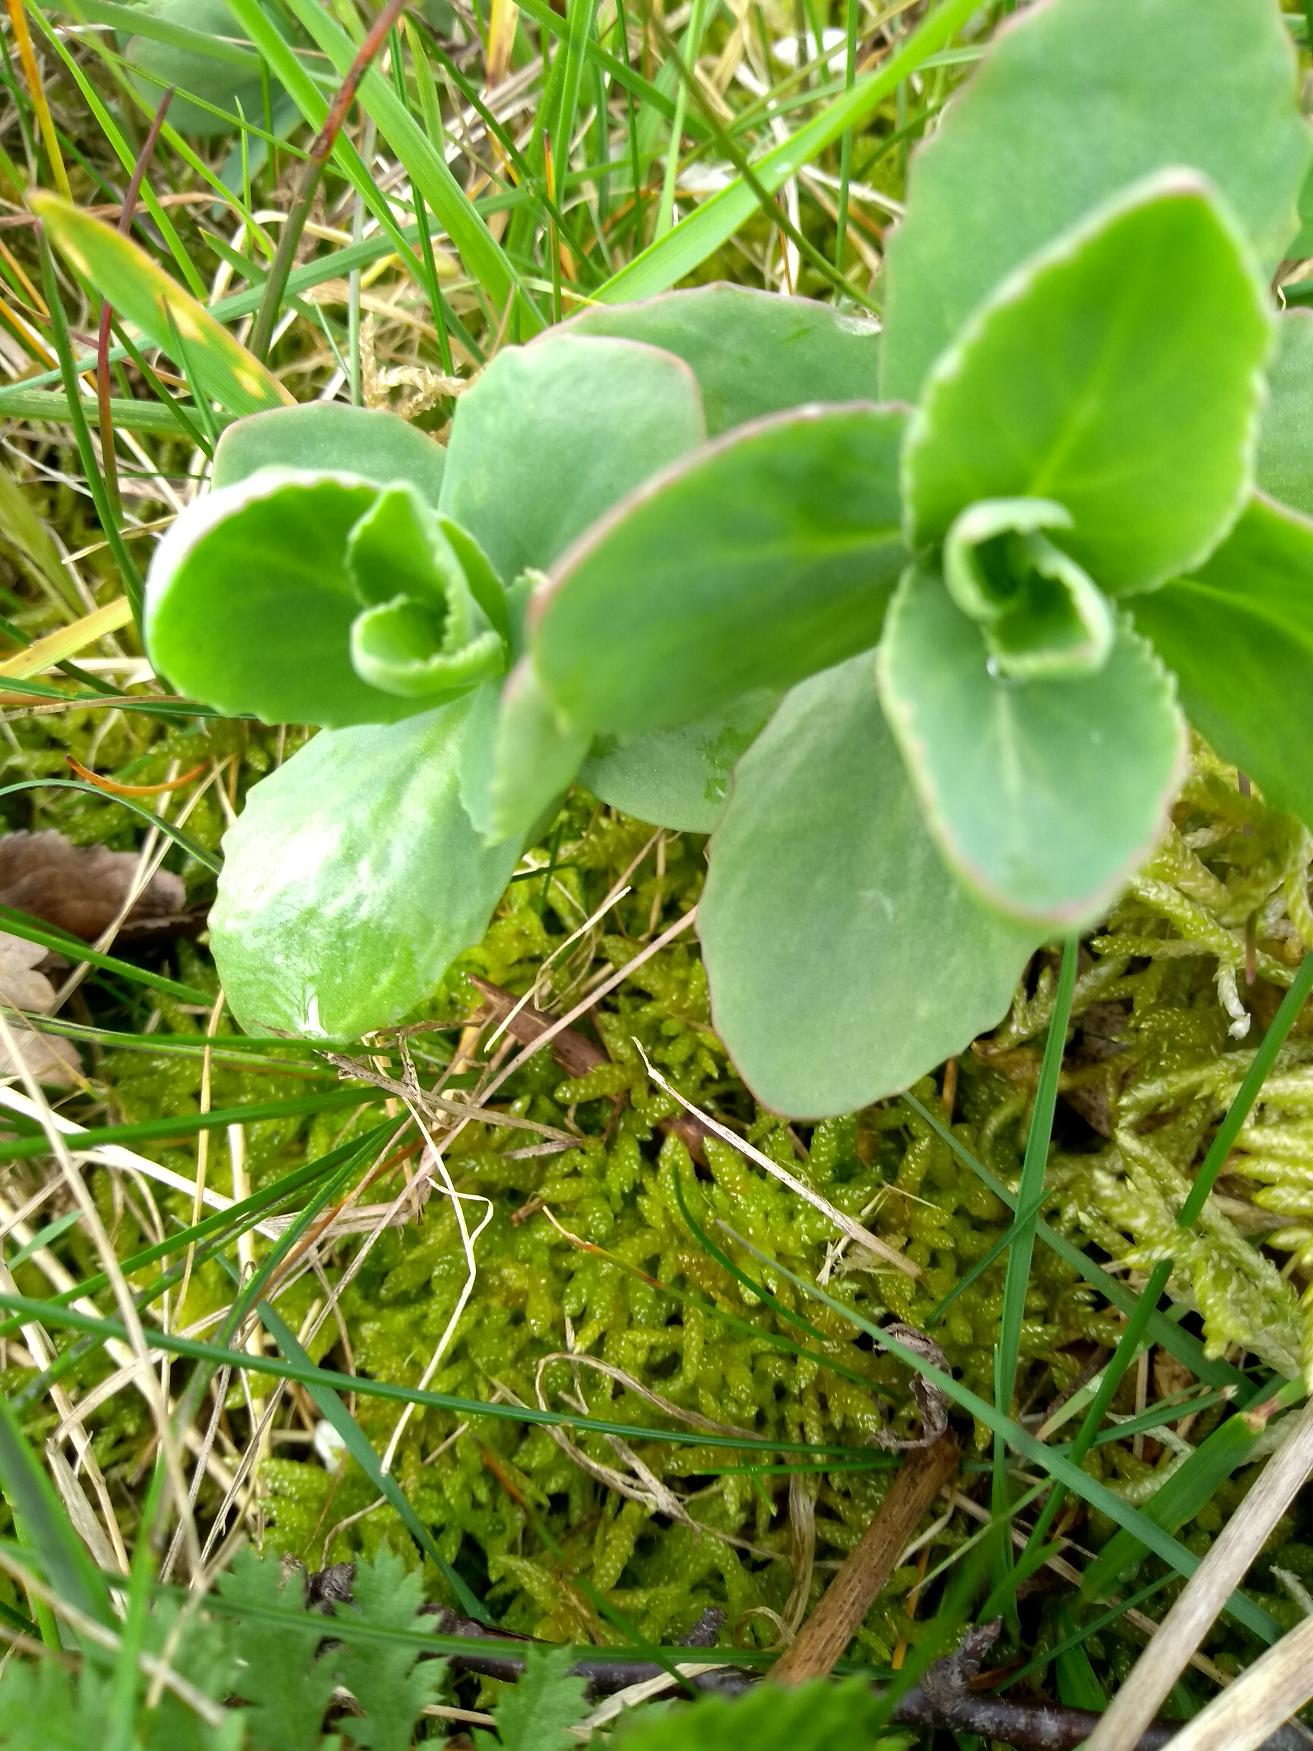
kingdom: Plantae
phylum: Tracheophyta
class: Magnoliopsida
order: Saxifragales
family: Crassulaceae
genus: Hylotelephium
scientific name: Hylotelephium telephium
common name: Sankthansurt
